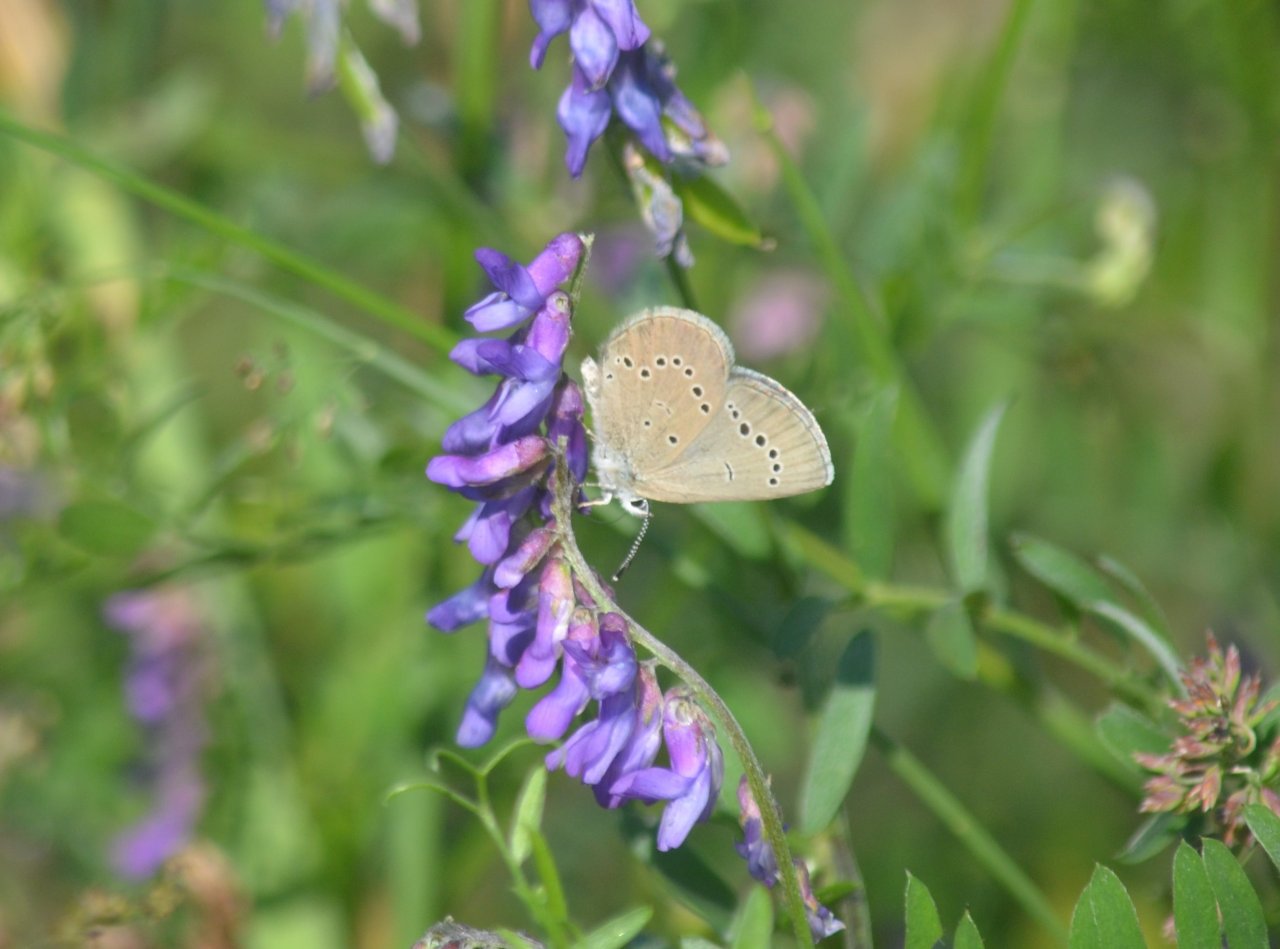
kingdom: Animalia
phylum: Arthropoda
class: Insecta
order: Lepidoptera
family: Lycaenidae
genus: Glaucopsyche
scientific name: Glaucopsyche lygdamus
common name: Silvery Blue
